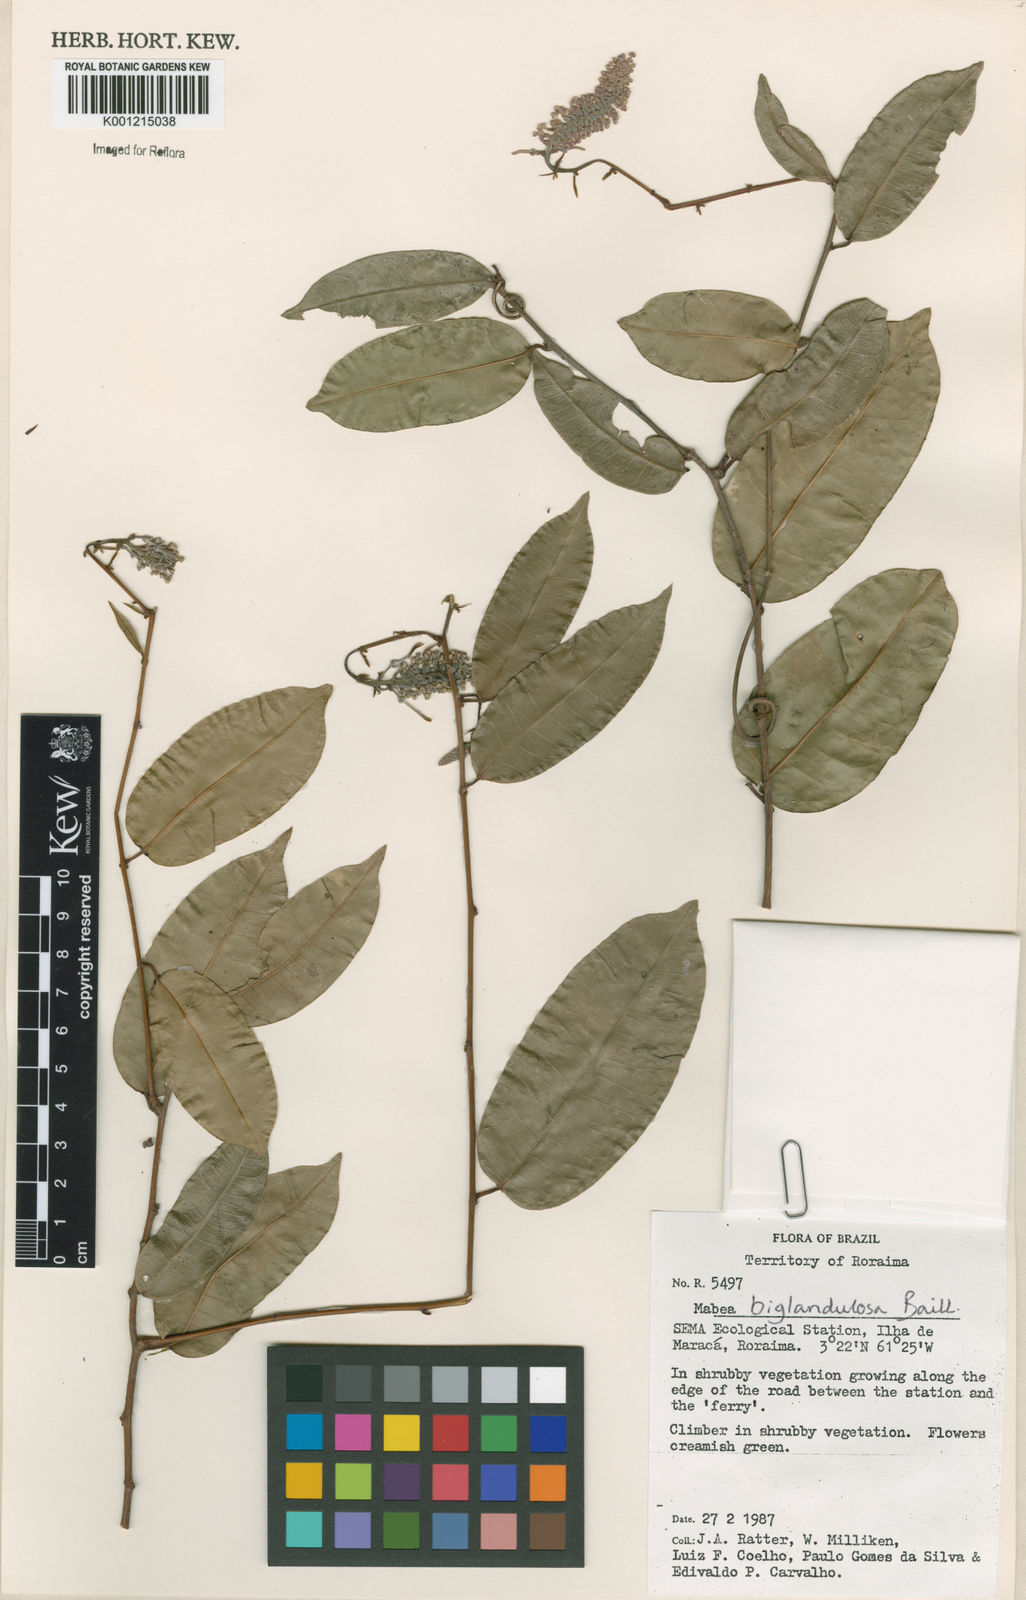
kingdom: Plantae
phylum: Tracheophyta
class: Magnoliopsida
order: Malpighiales
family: Euphorbiaceae
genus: Mabea
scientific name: Mabea
